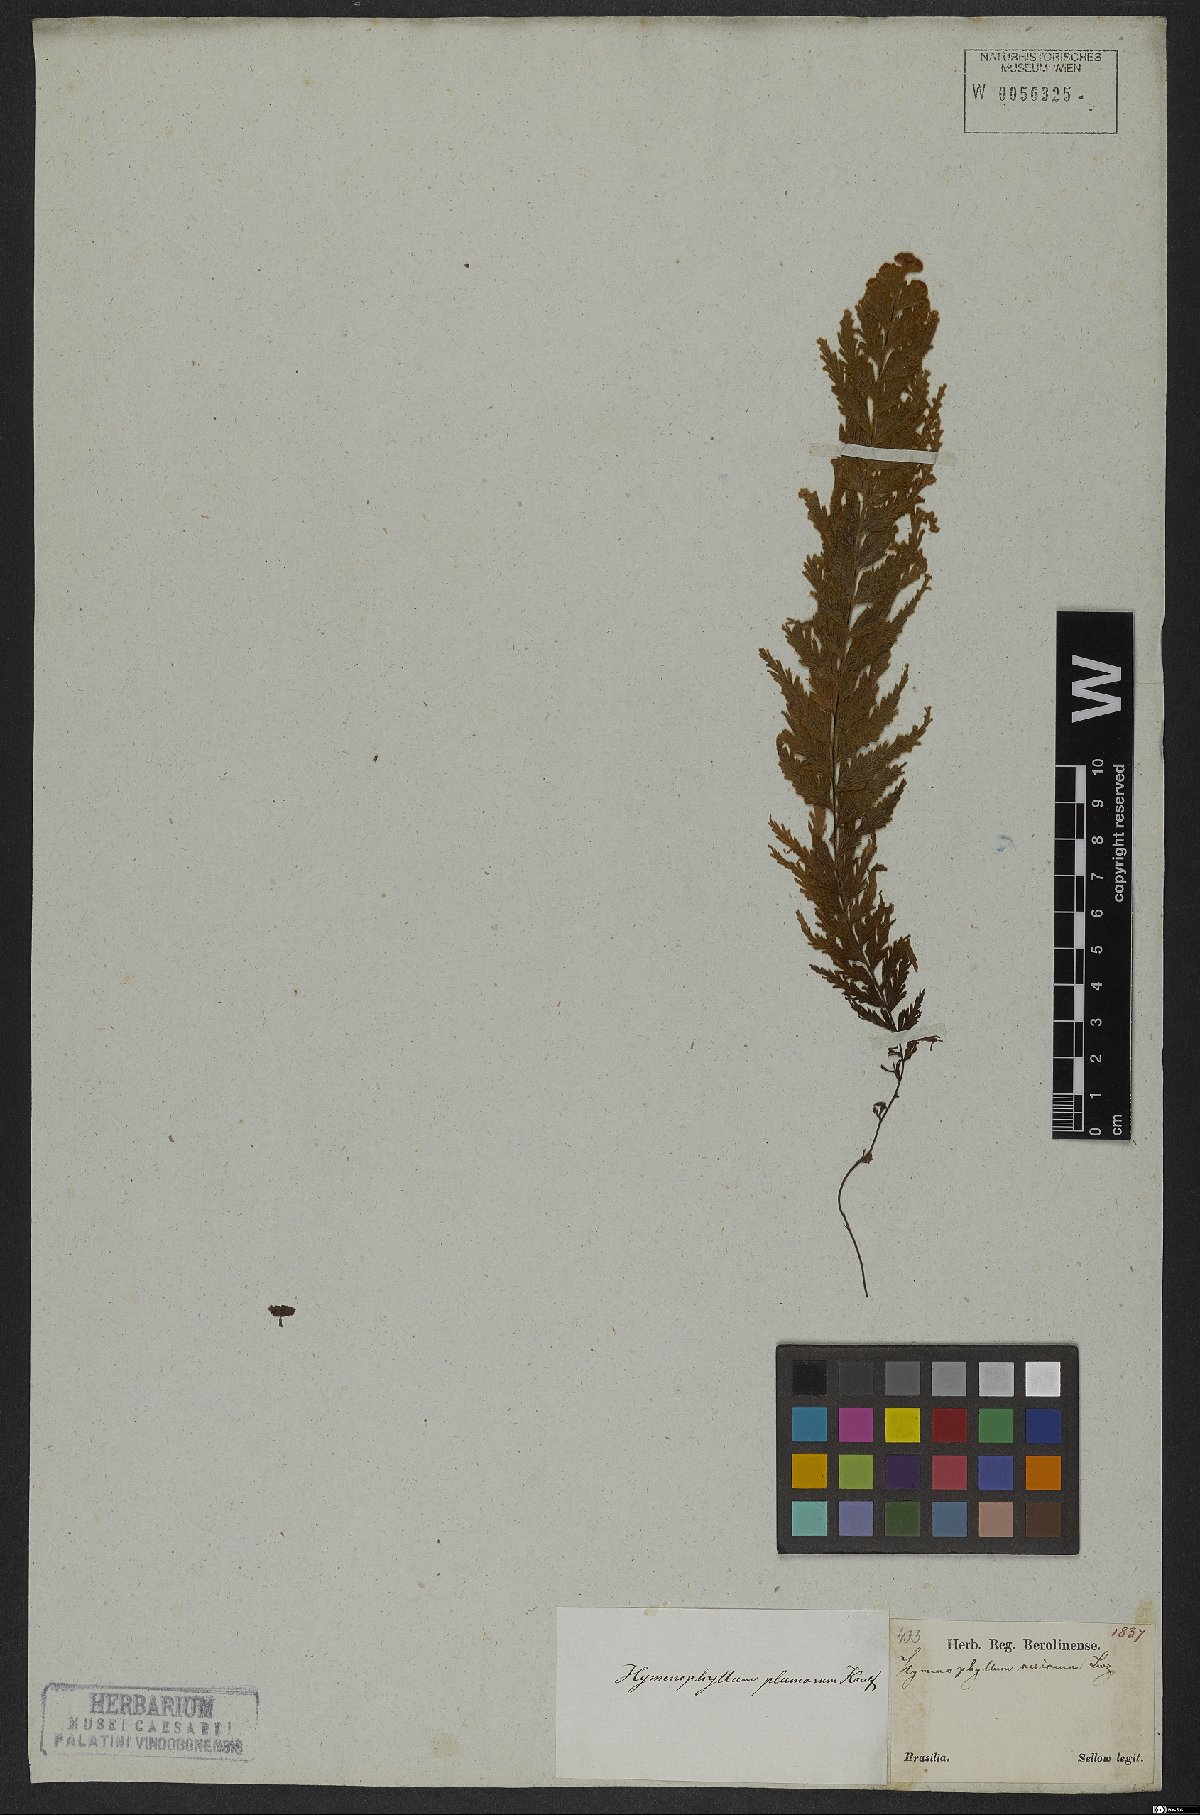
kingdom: Plantae
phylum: Tracheophyta
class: Polypodiopsida
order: Hymenophyllales
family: Hymenophyllaceae
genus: Hymenophyllum
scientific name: Hymenophyllum plumosum
